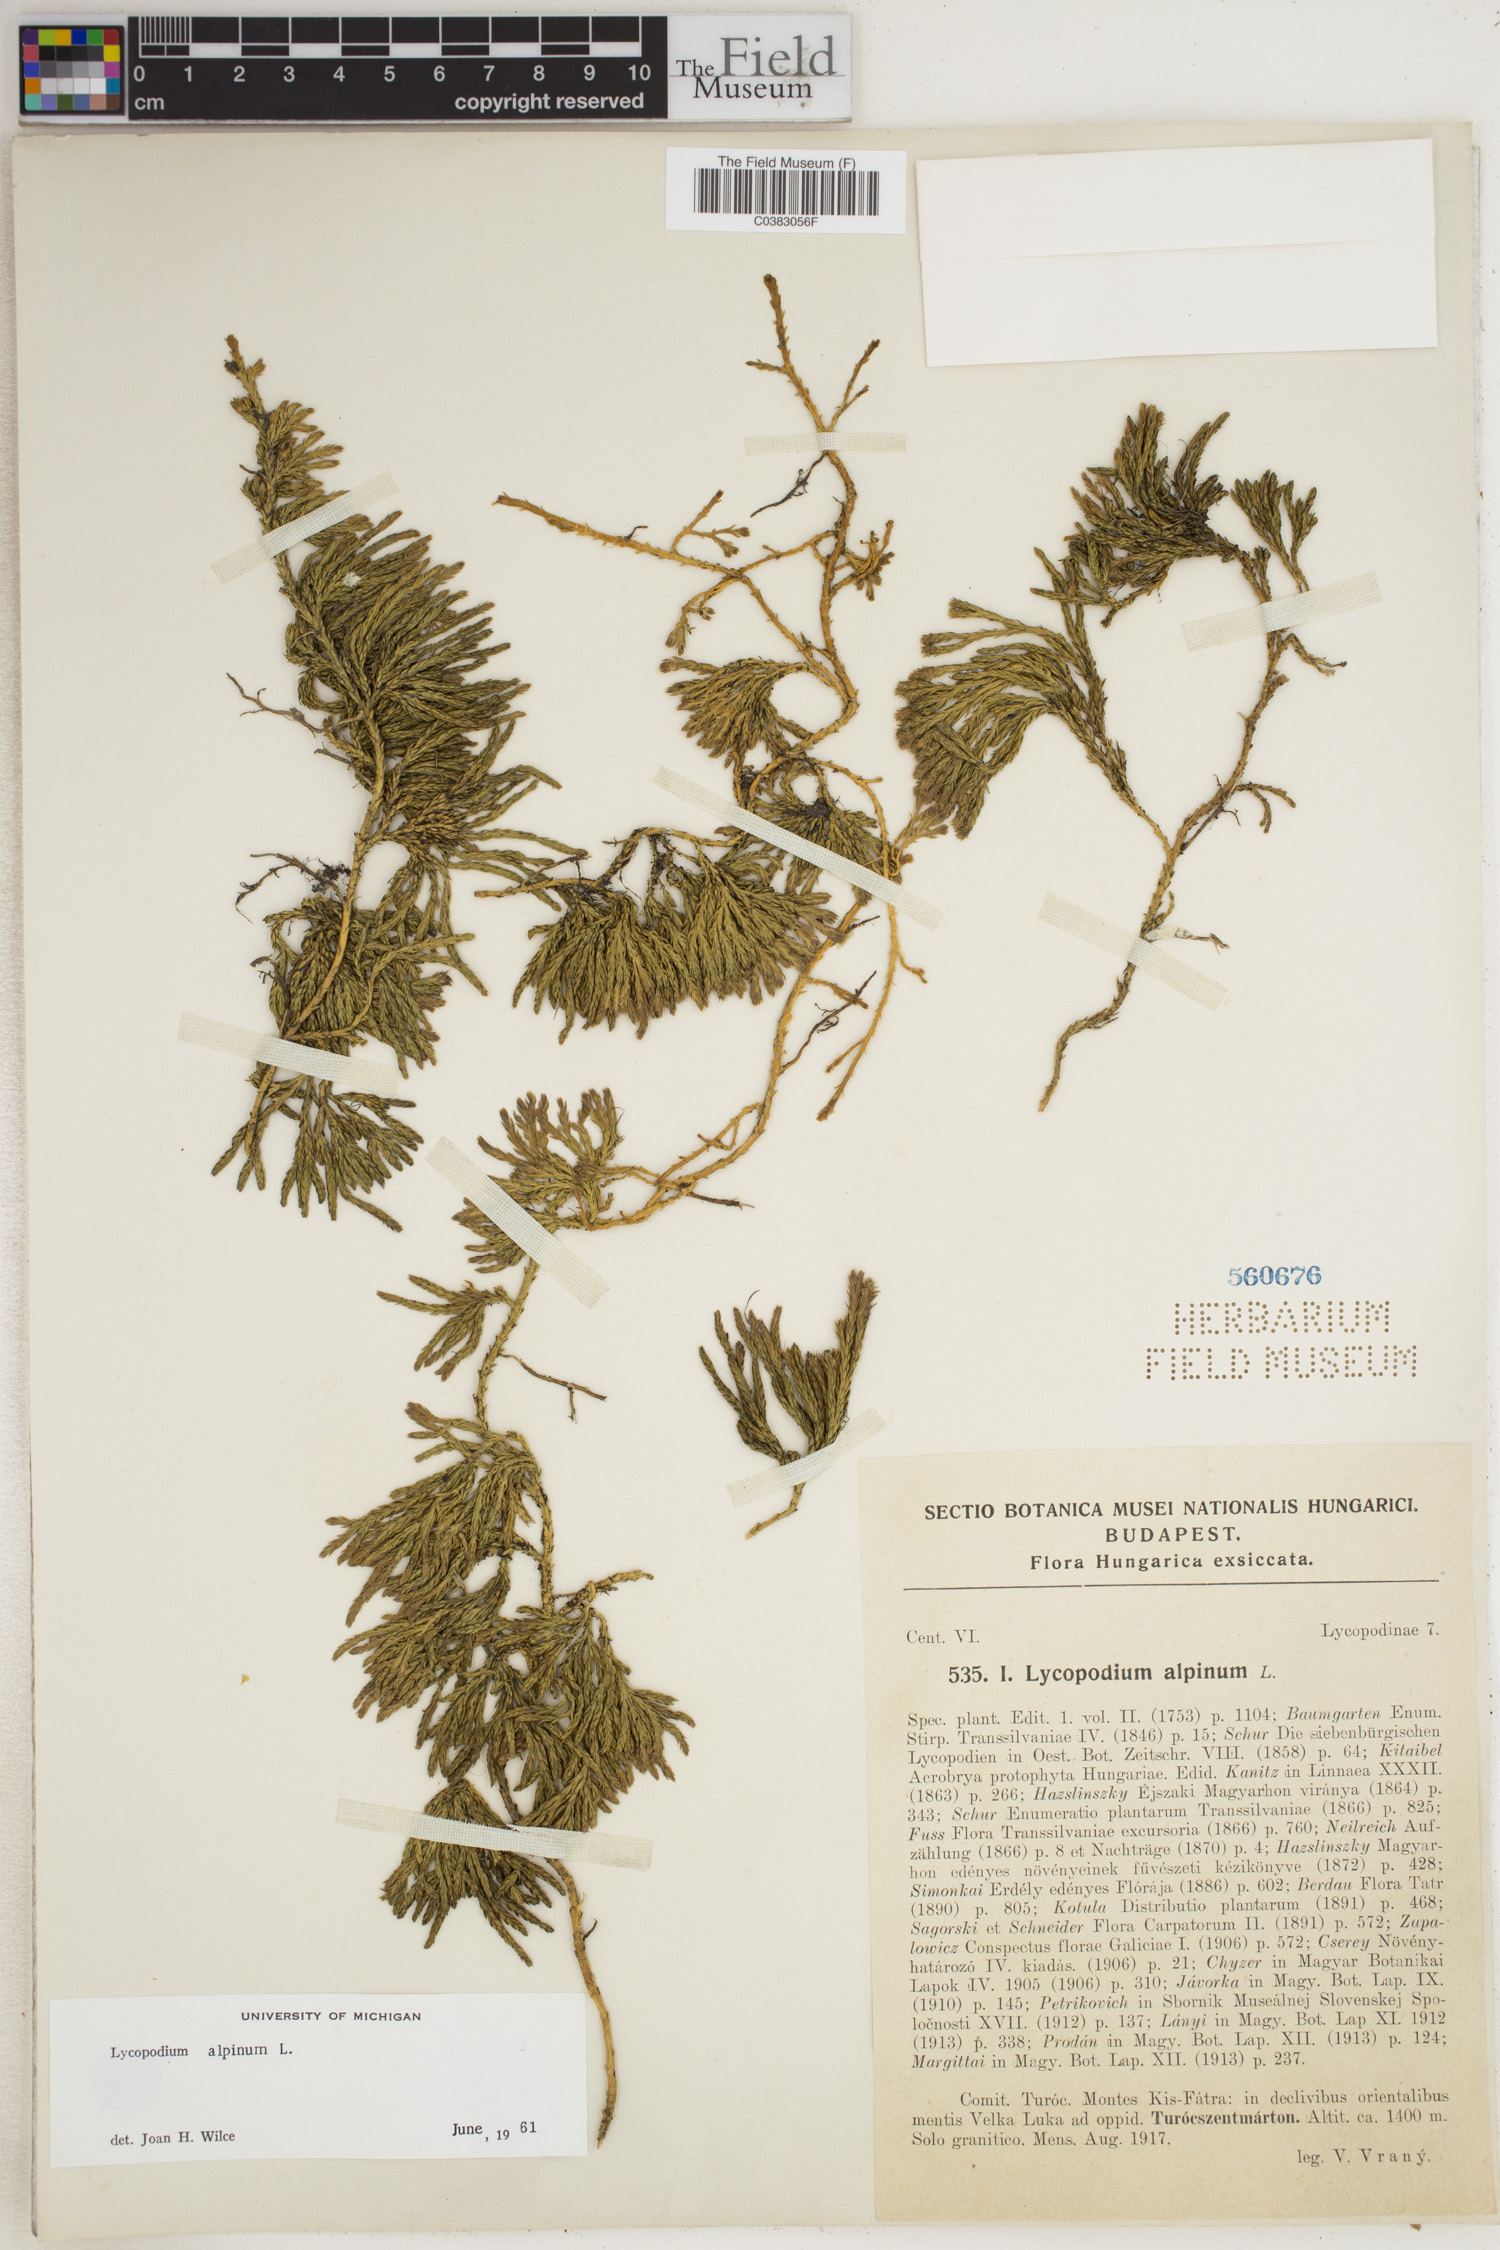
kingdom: Plantae
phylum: Tracheophyta
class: Lycopodiopsida
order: Lycopodiales
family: Lycopodiaceae
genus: Diphasiastrum
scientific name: Diphasiastrum alpinum
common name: Alpine clubmoss
